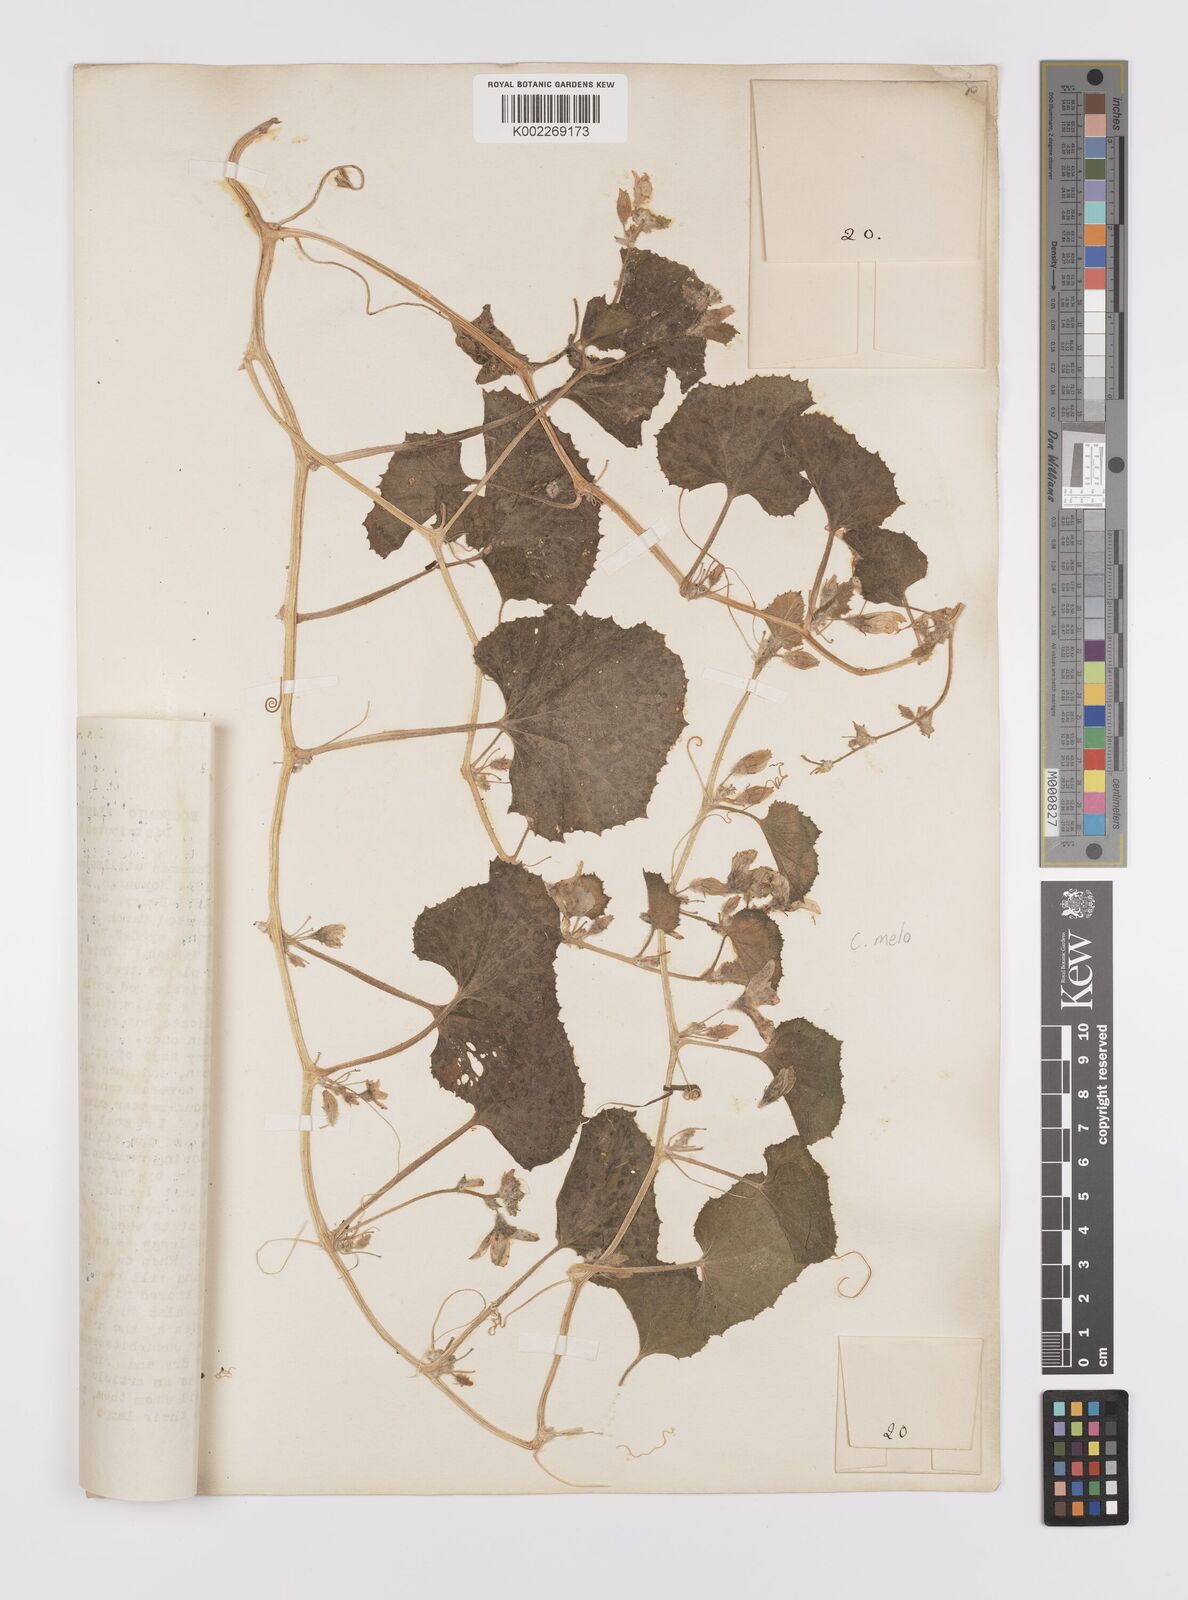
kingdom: Plantae
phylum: Tracheophyta
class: Magnoliopsida
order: Cucurbitales
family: Cucurbitaceae
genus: Cucumis
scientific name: Cucumis melo
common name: Melon
